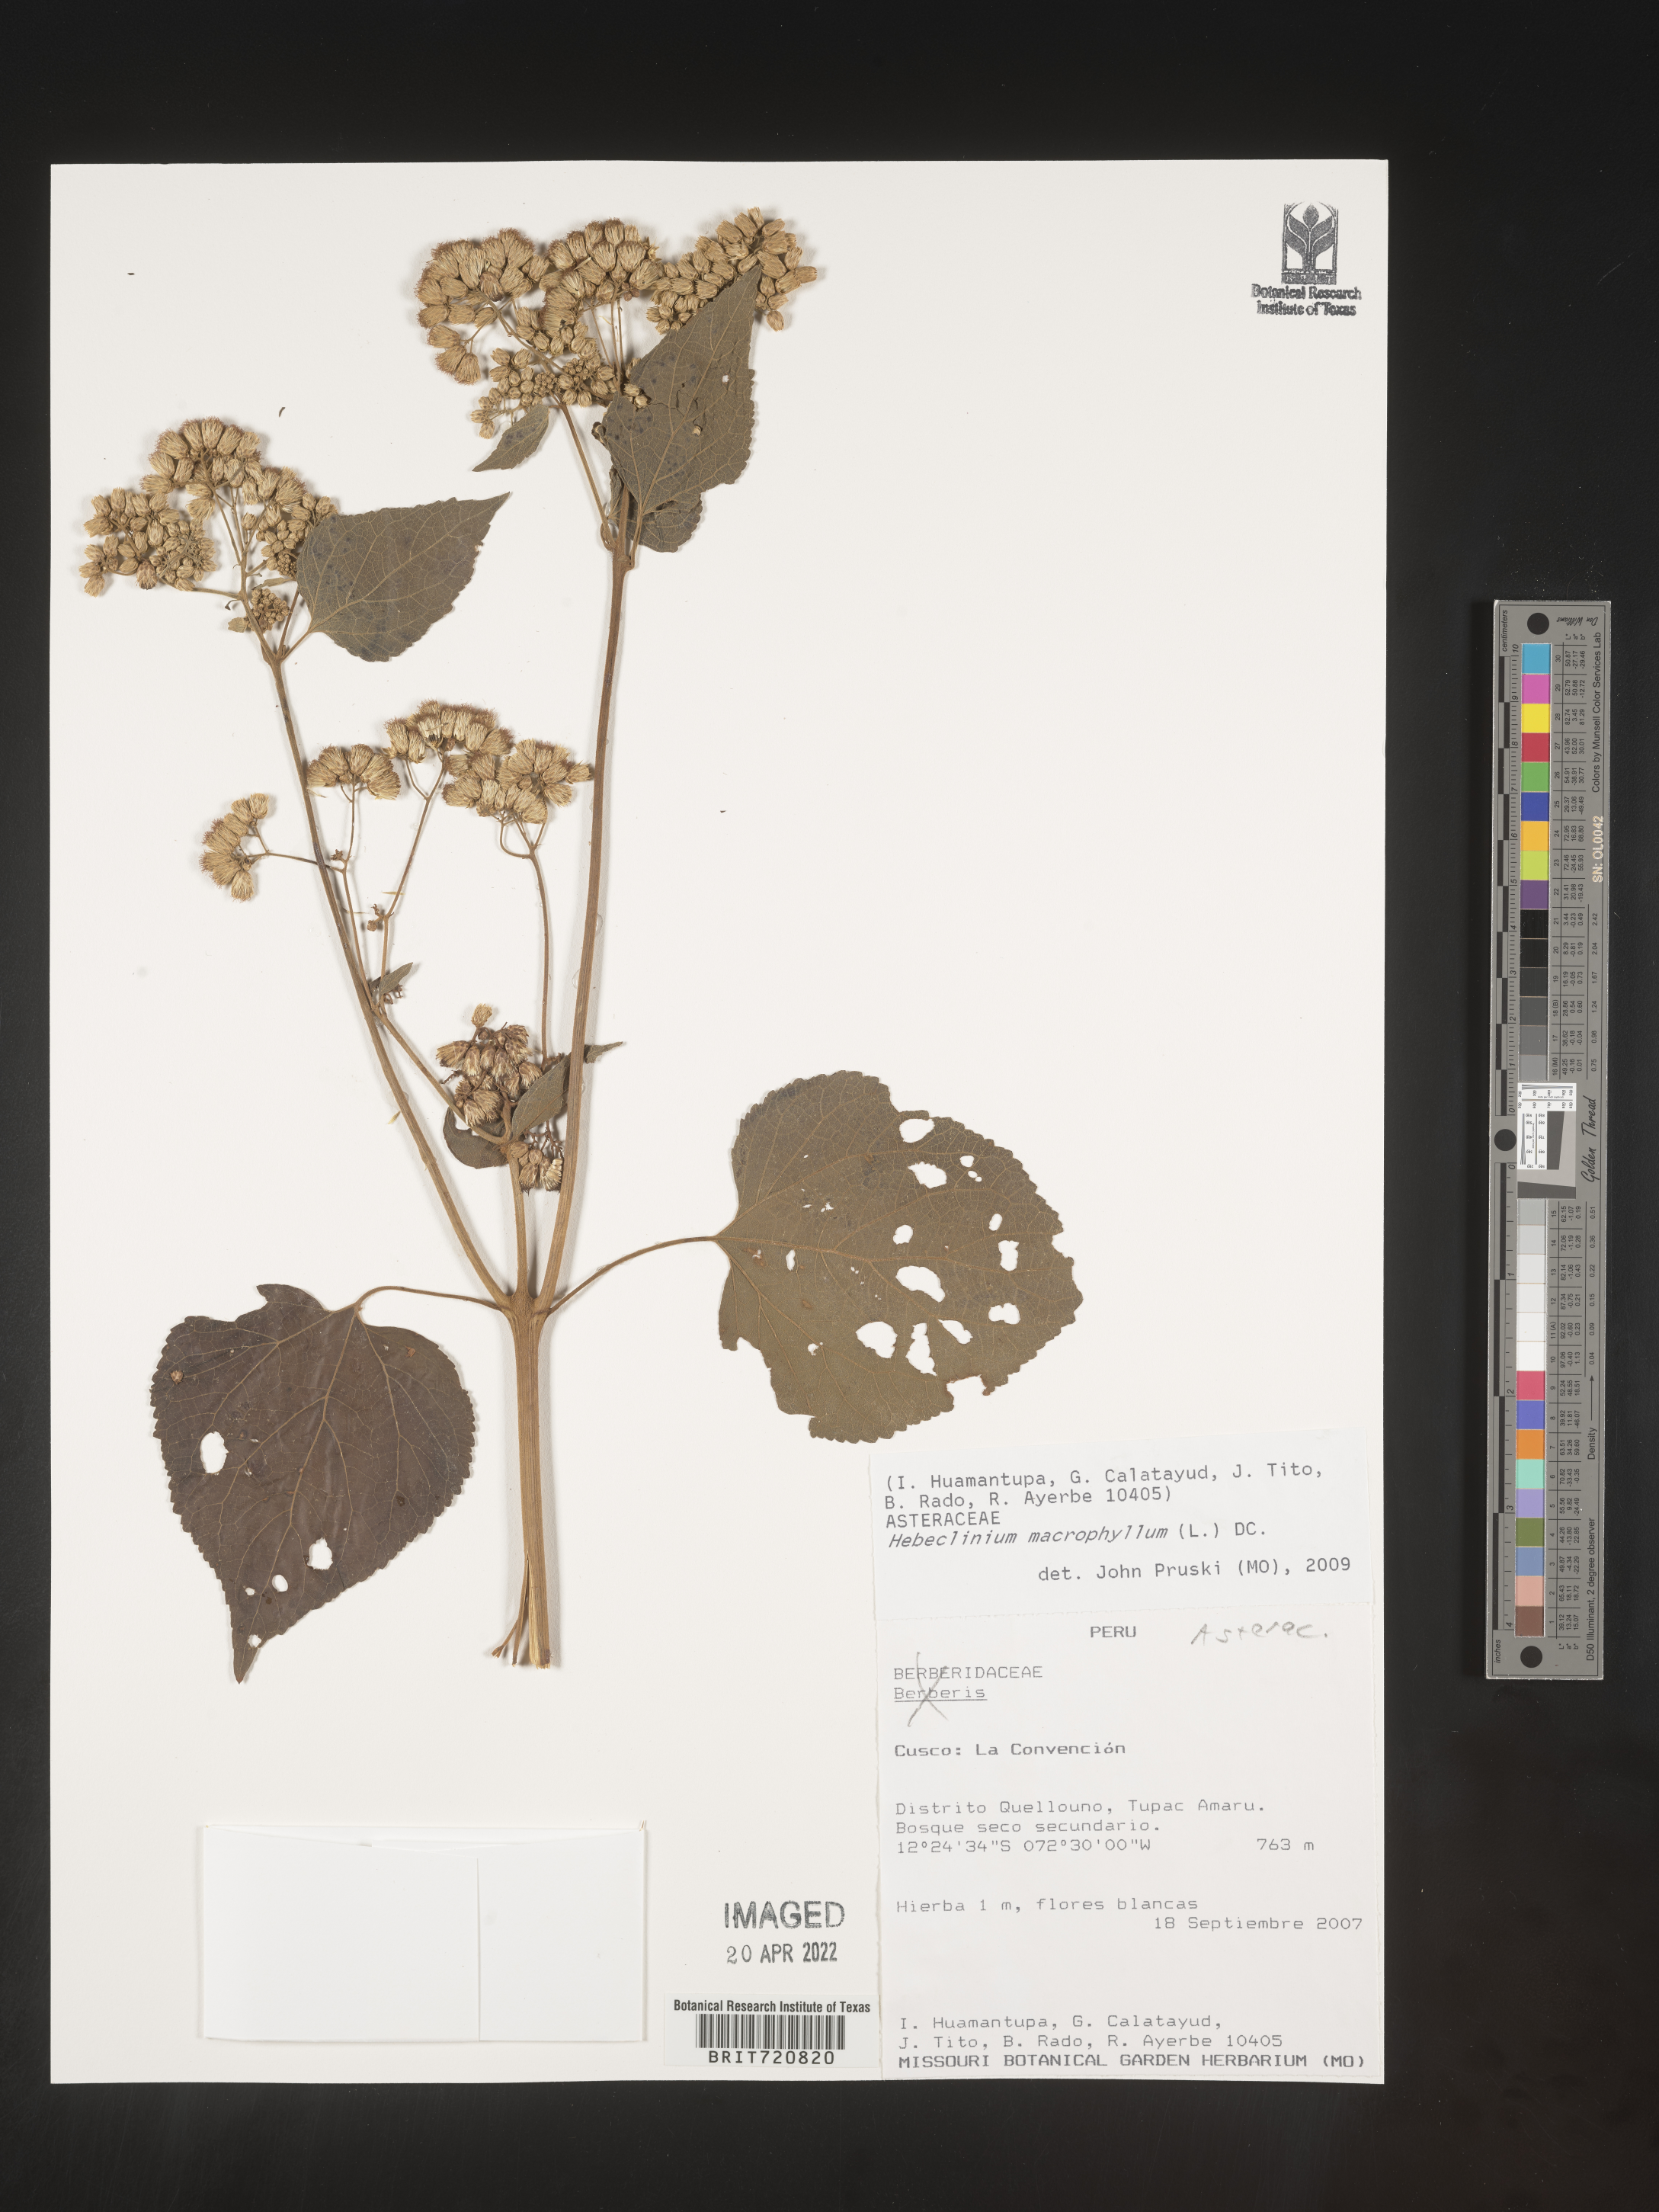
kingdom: Plantae
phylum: Tracheophyta
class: Magnoliopsida
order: Asterales
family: Asteraceae
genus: Hebeclinium
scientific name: Hebeclinium
